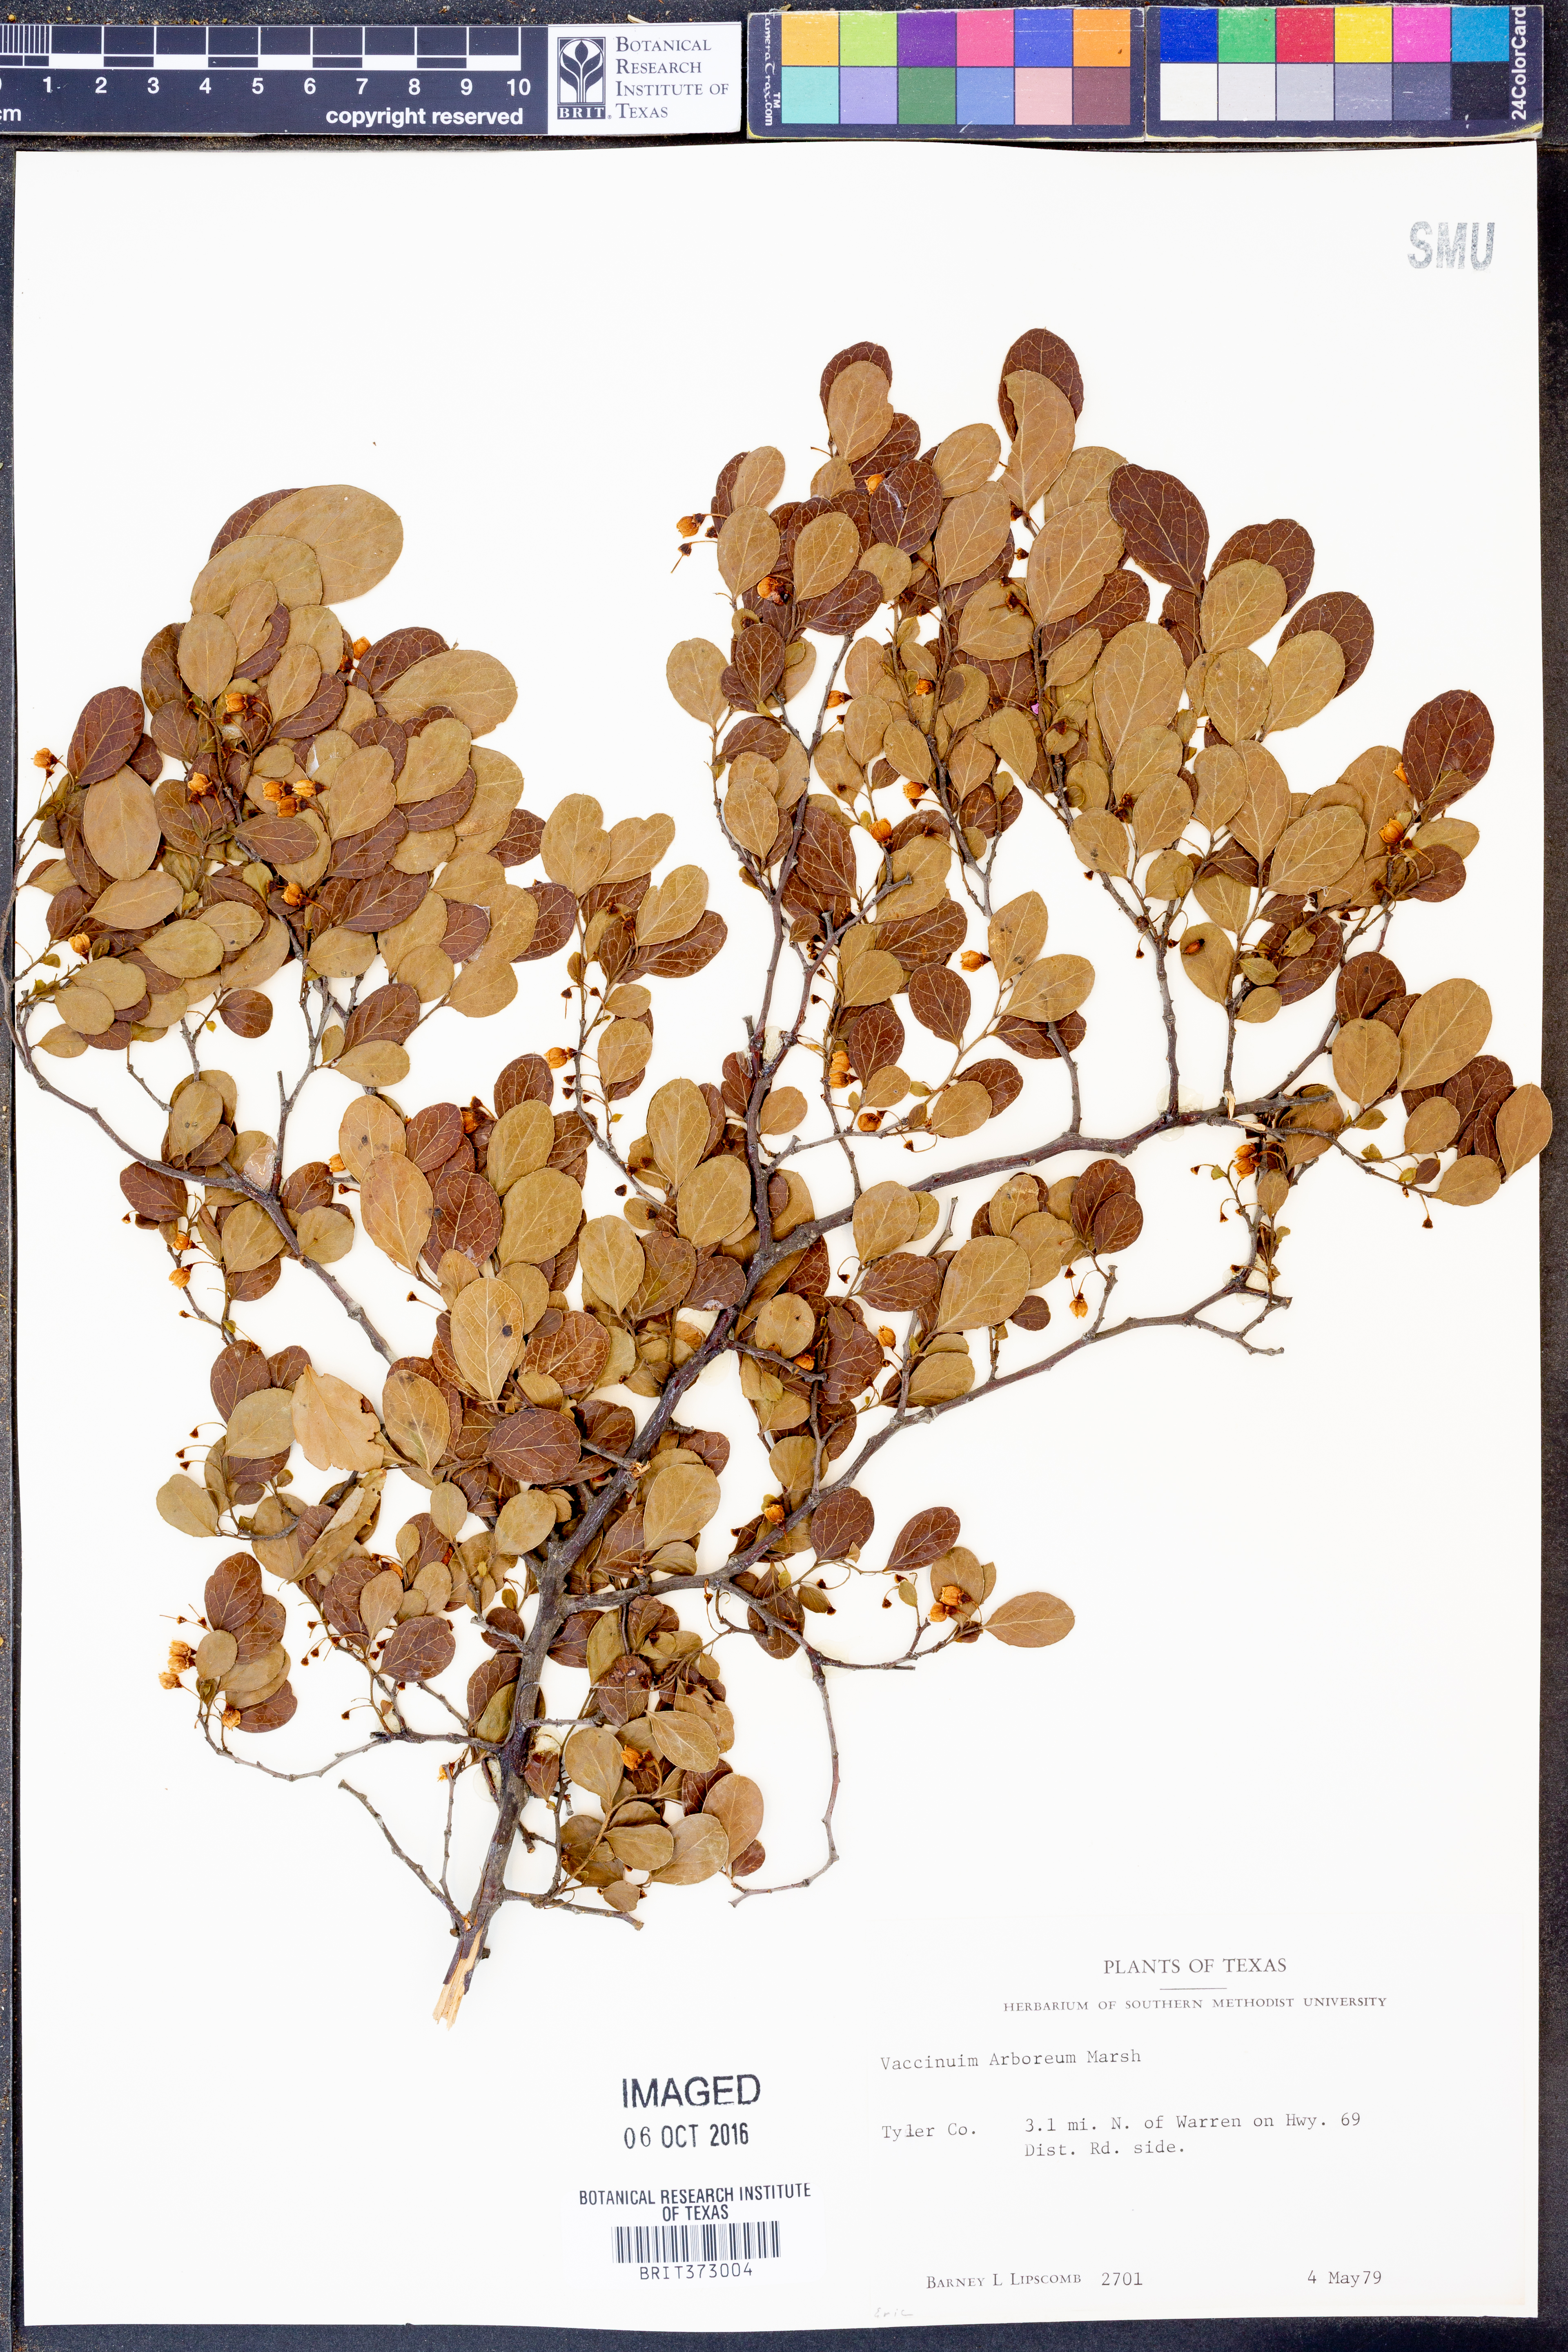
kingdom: Plantae
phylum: Tracheophyta
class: Magnoliopsida
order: Ericales
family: Ericaceae
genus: Vaccinium
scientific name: Vaccinium arboreum
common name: Farkleberry
